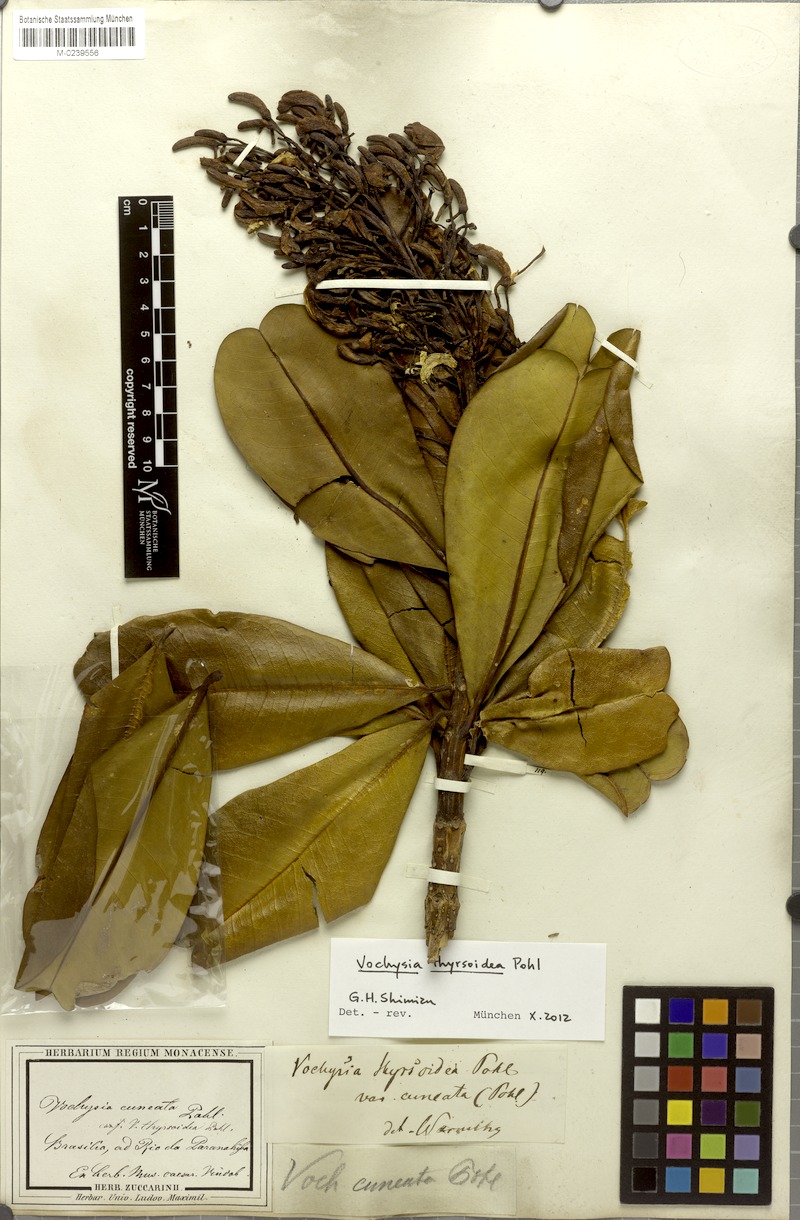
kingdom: Plantae
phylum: Tracheophyta
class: Magnoliopsida
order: Myrtales
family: Vochysiaceae
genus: Vochysia
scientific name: Vochysia thyrsoidea
